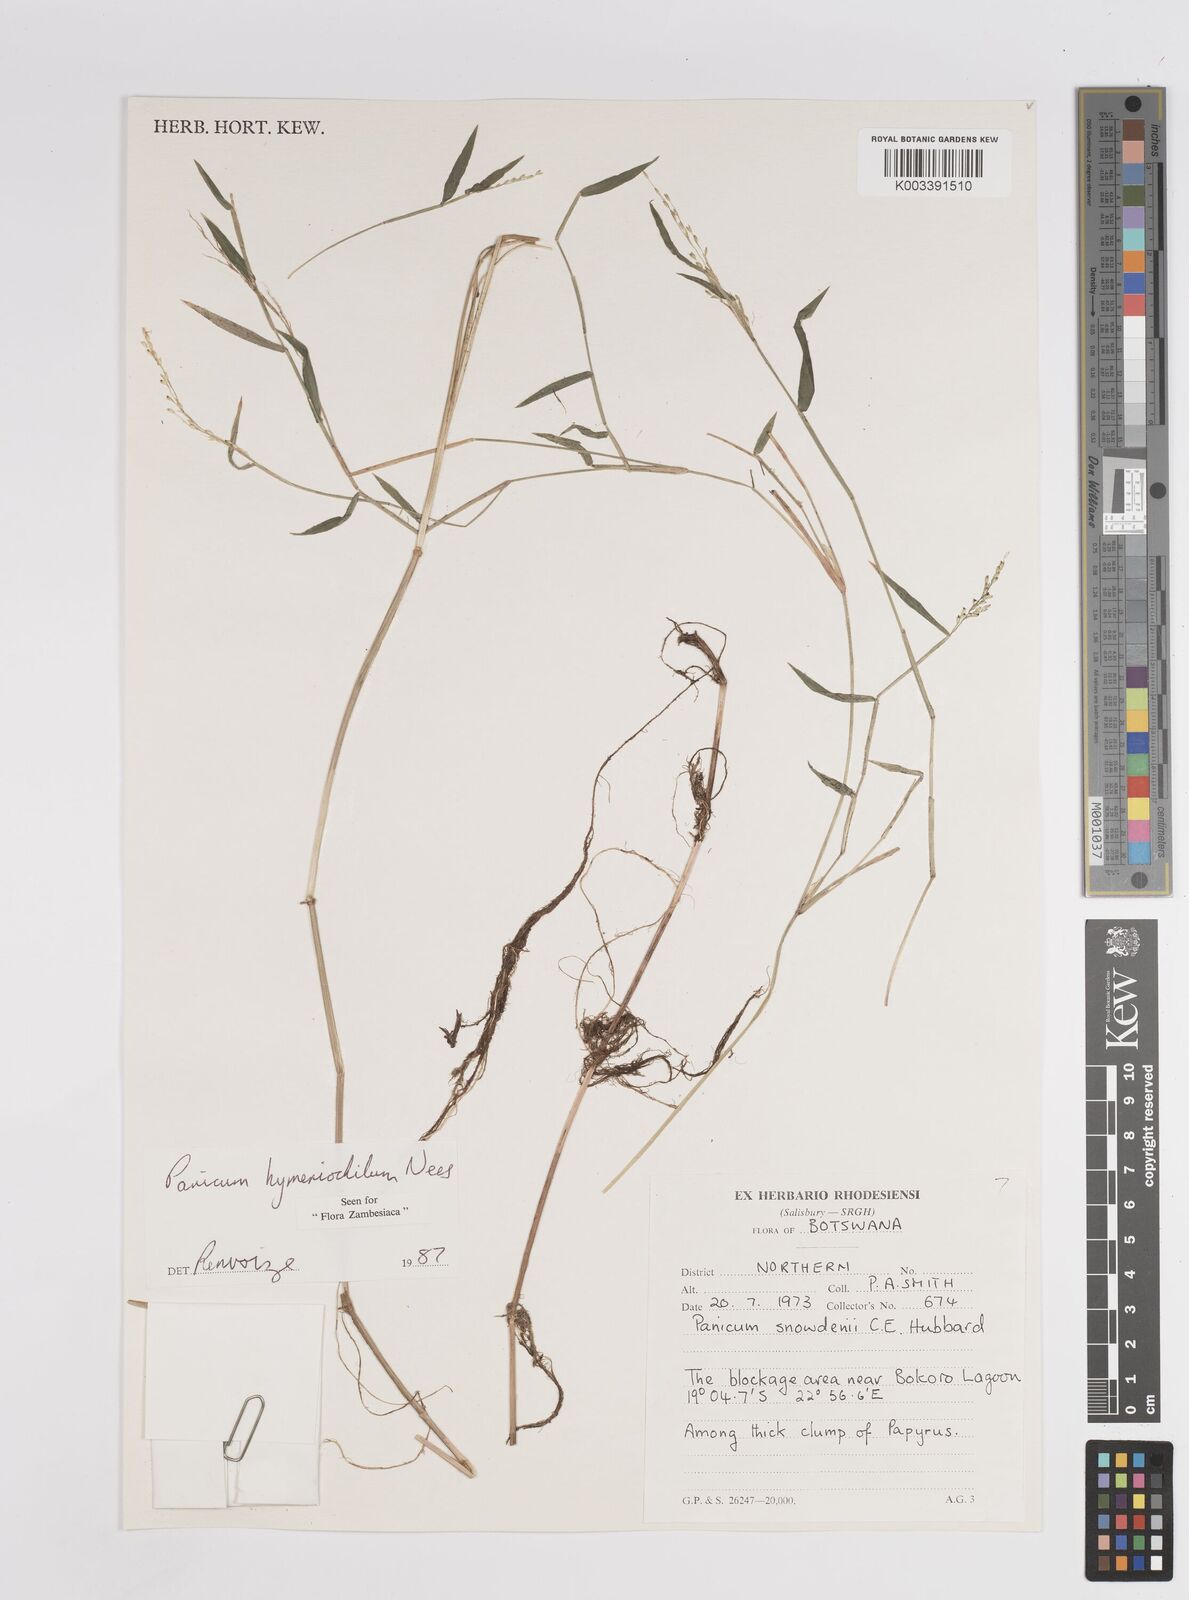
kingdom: Plantae
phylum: Tracheophyta
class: Liliopsida
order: Poales
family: Poaceae
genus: Adenochloa
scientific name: Adenochloa hymeniochila
